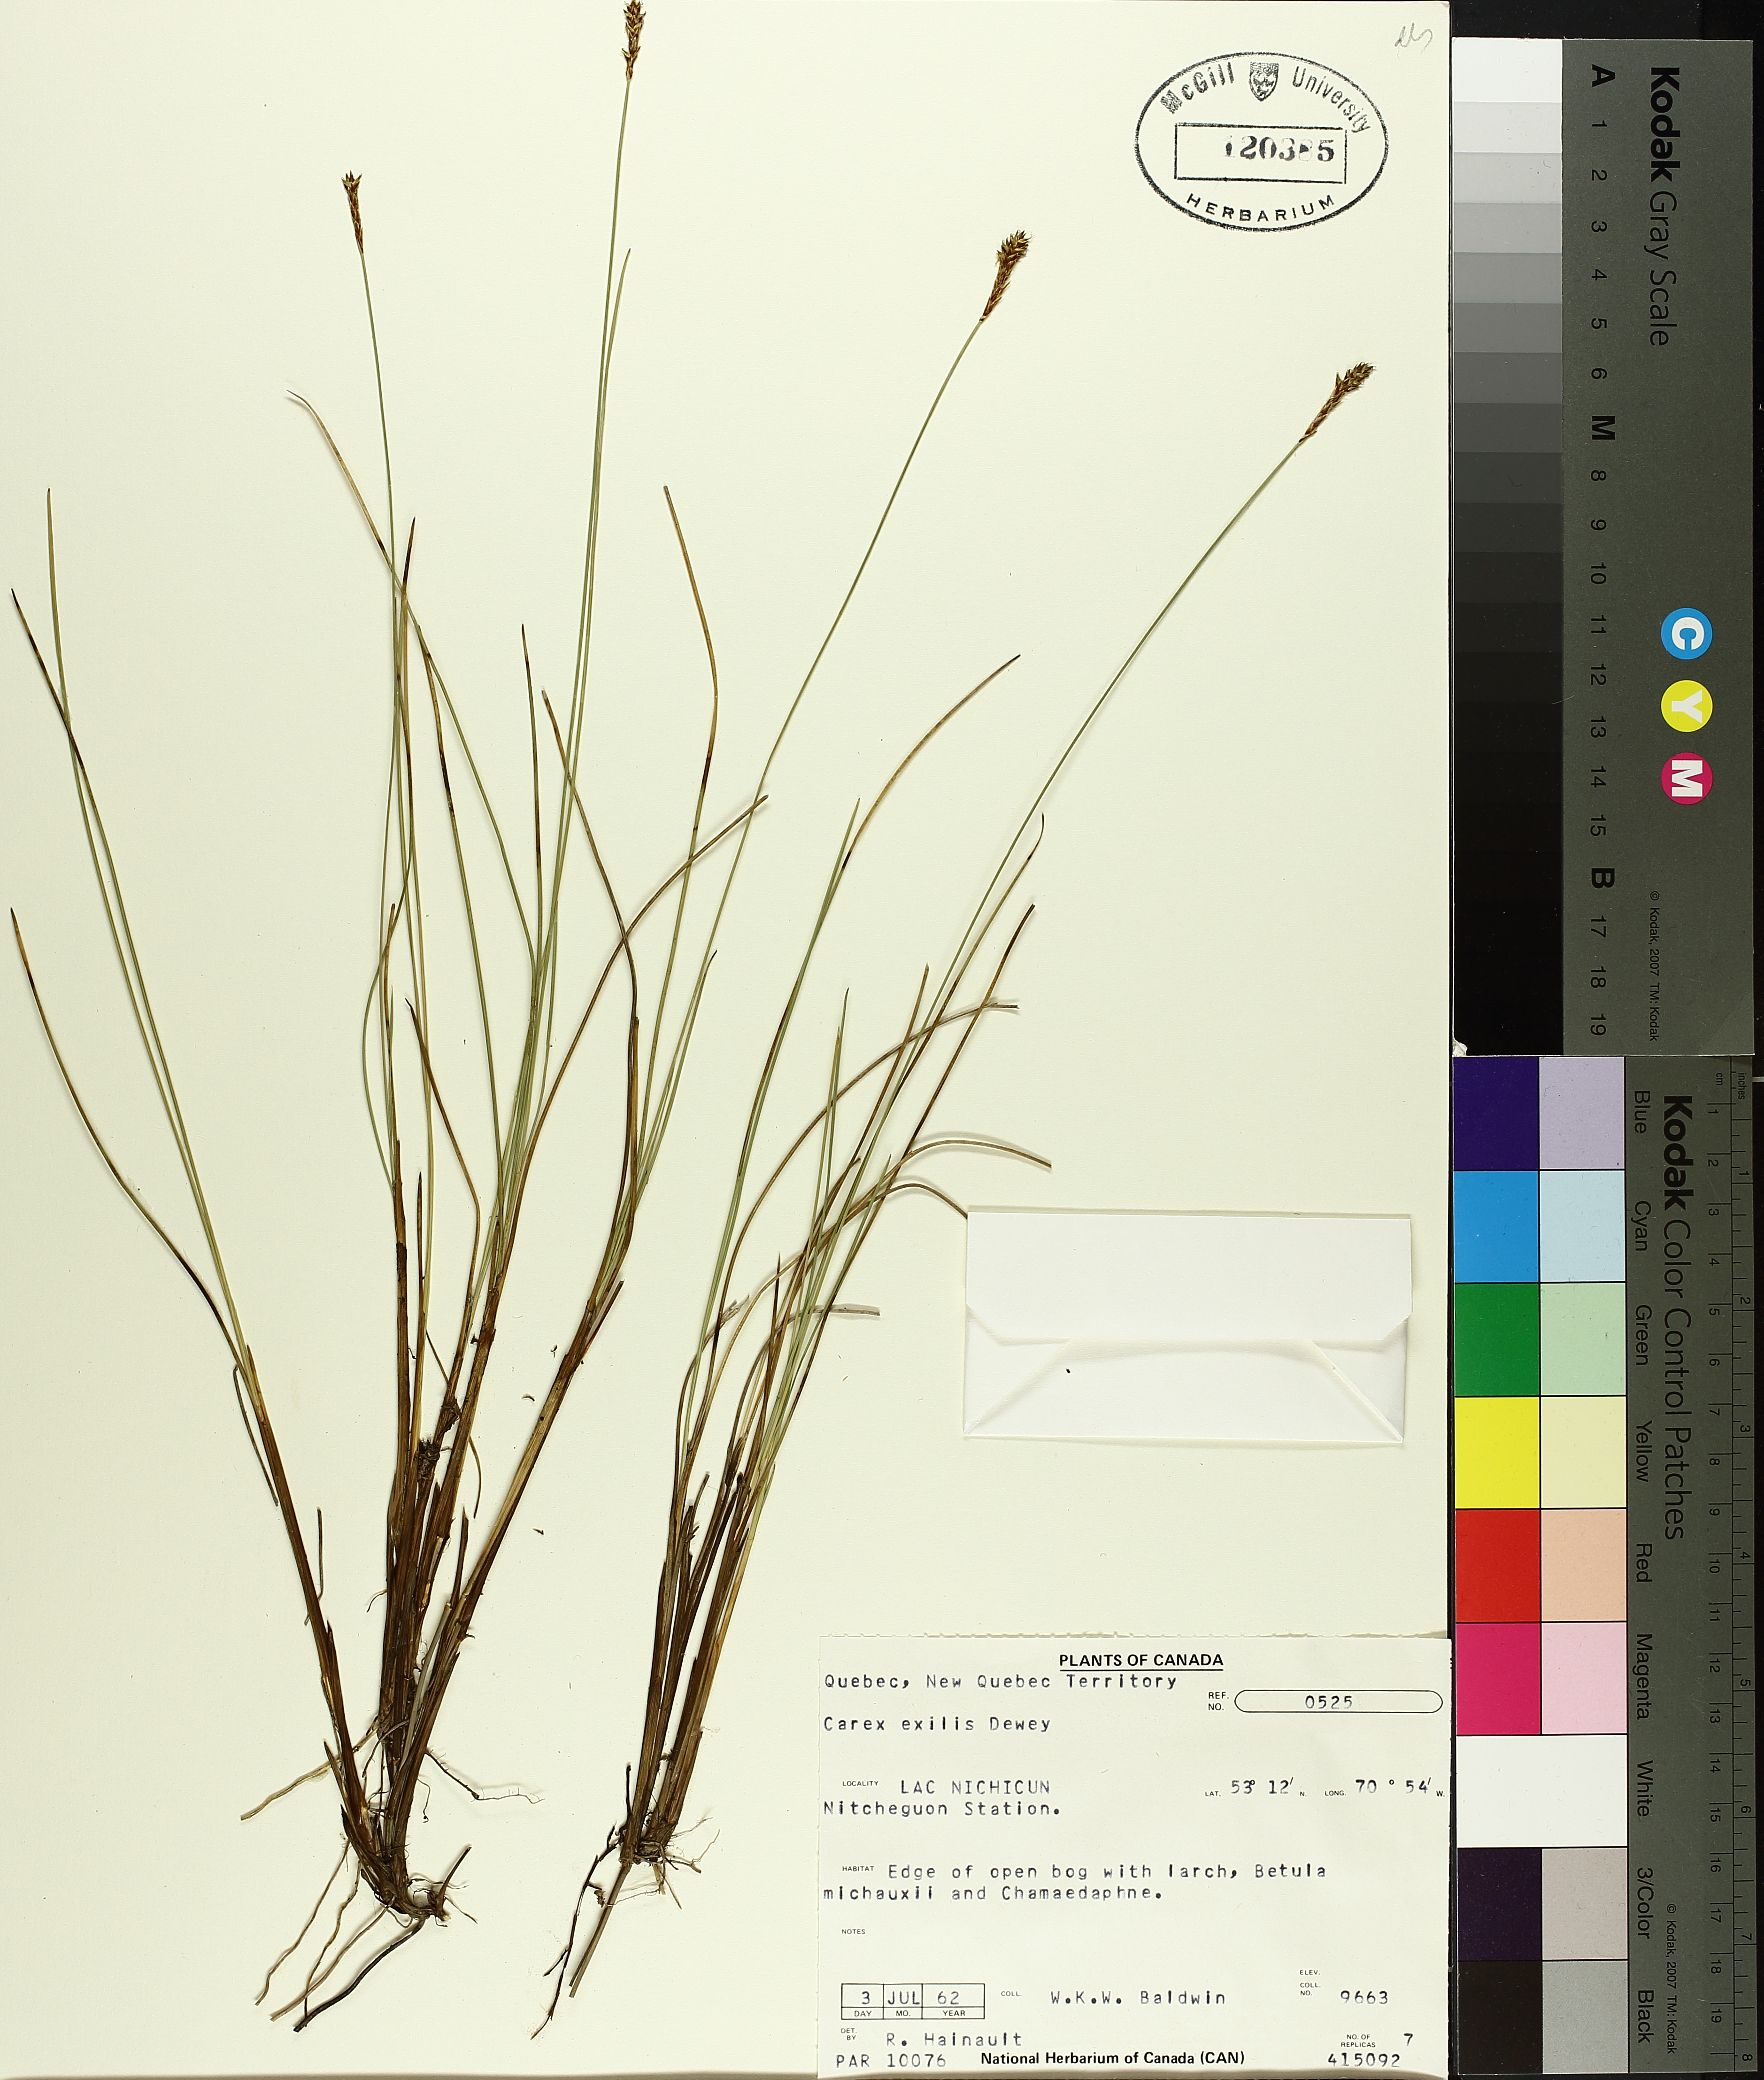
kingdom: Plantae
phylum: Tracheophyta
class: Liliopsida
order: Poales
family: Cyperaceae
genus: Carex
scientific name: Carex exilis
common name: Coastal sedge
